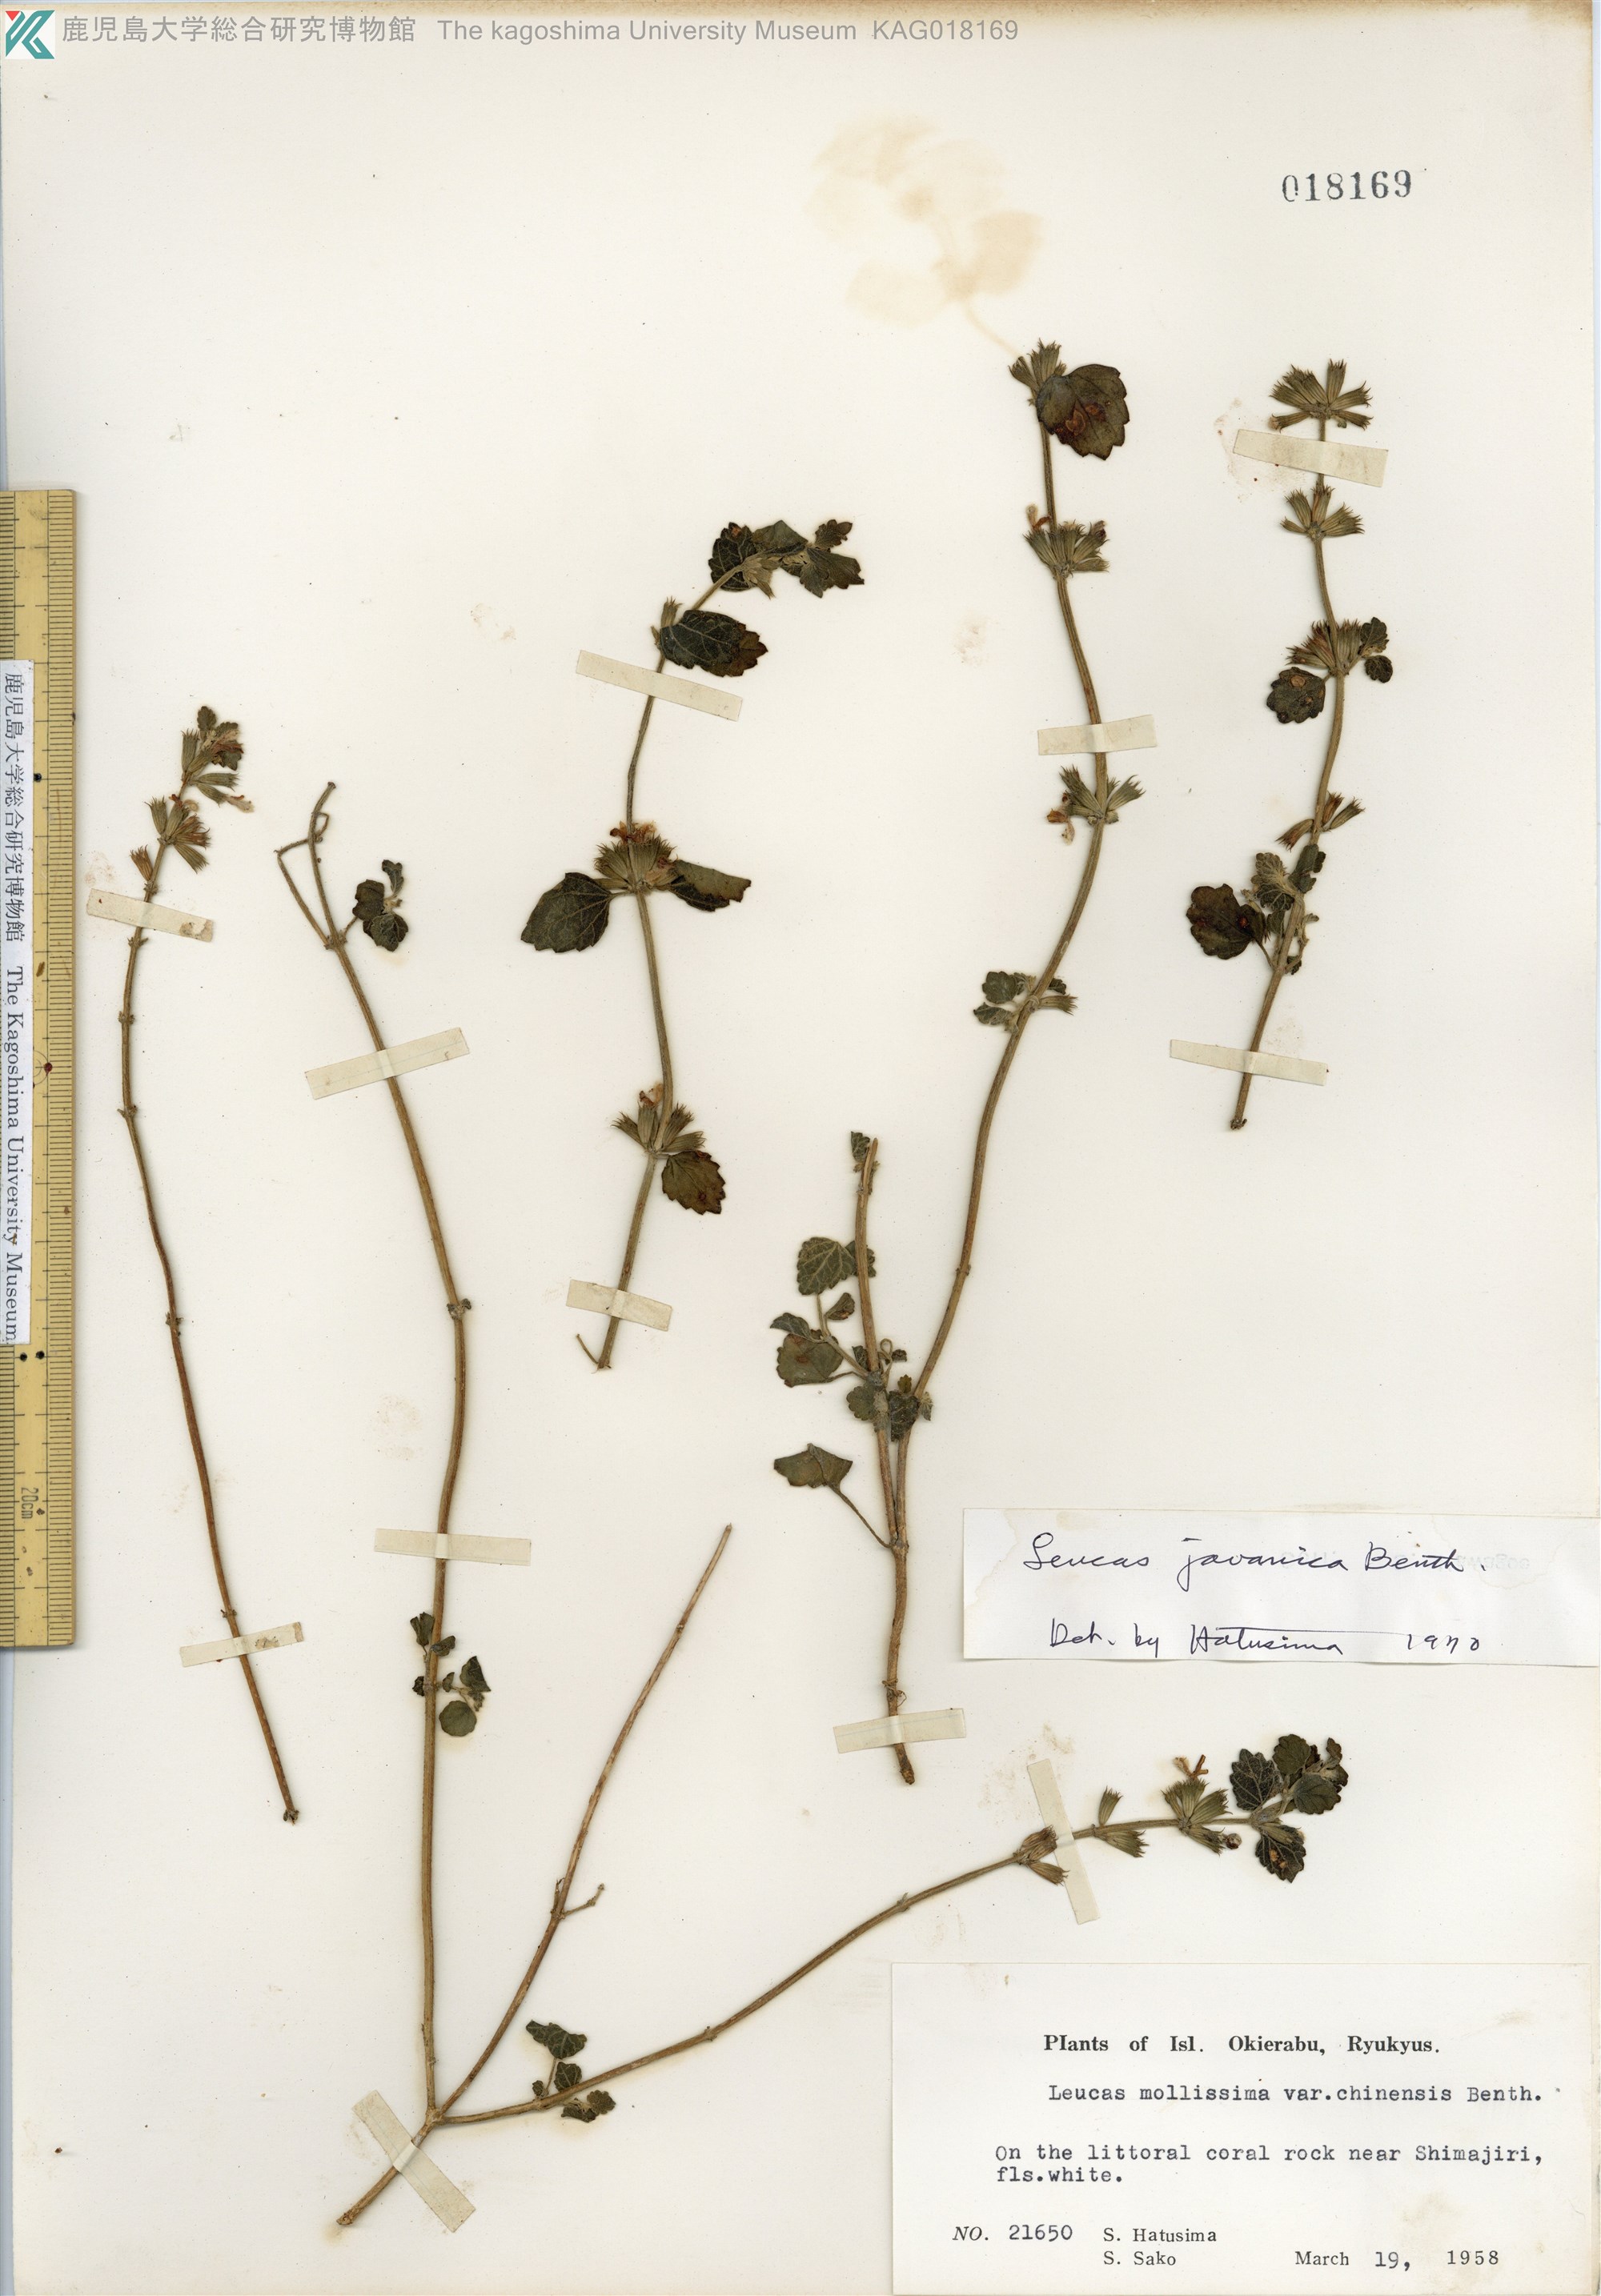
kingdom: Plantae
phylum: Tracheophyta
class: Magnoliopsida
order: Lamiales
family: Lamiaceae
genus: Leucas
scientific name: Leucas chinensis
